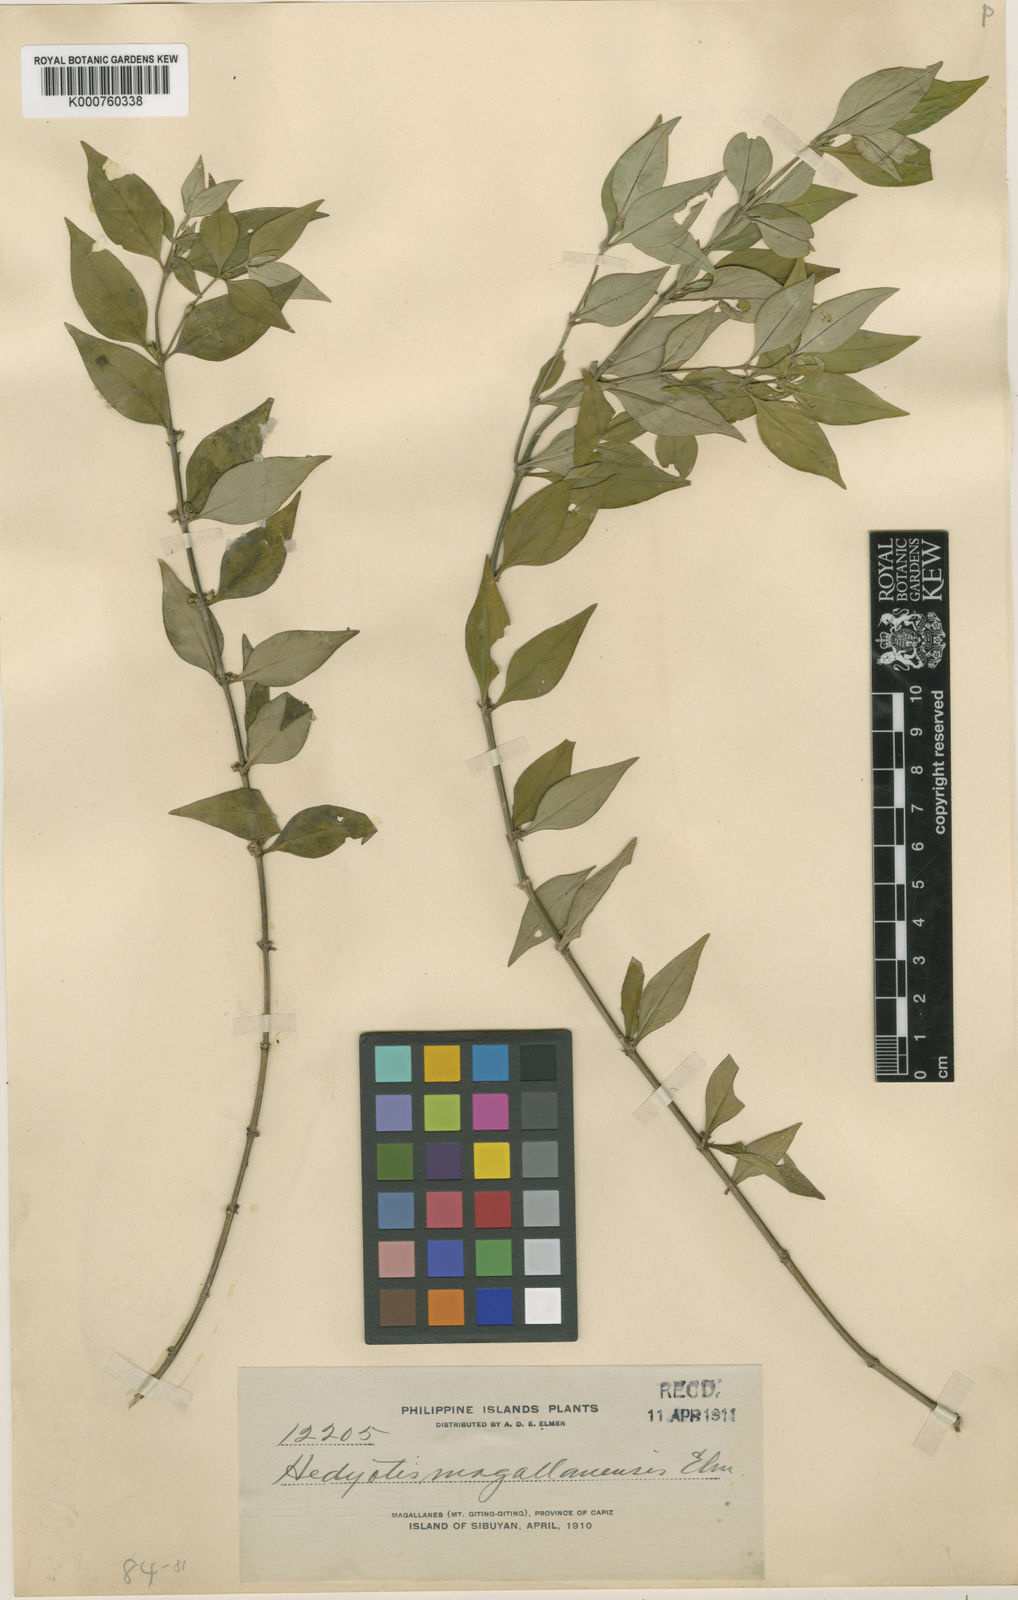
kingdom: Plantae
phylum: Tracheophyta
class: Magnoliopsida
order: Gentianales
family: Rubiaceae
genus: Exallage
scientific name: Exallage buruensis
